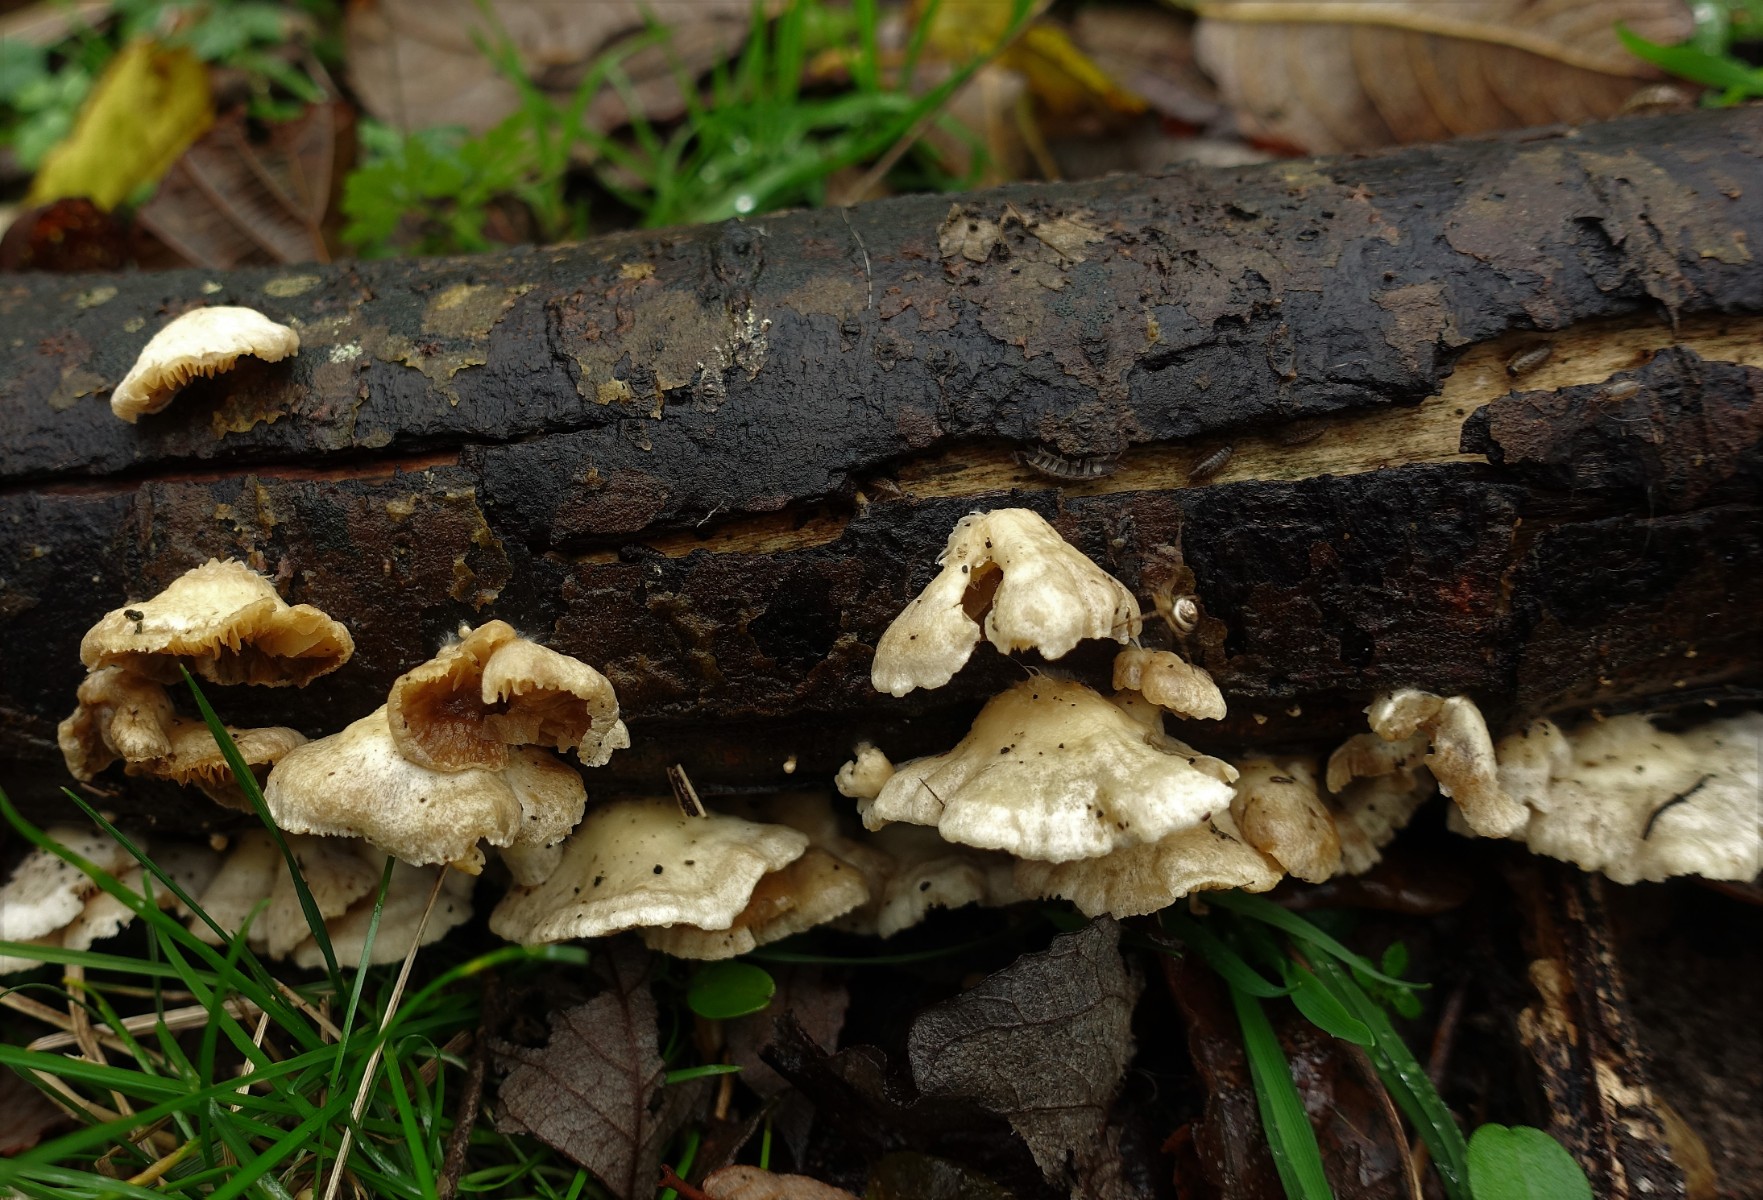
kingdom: Fungi
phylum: Basidiomycota
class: Agaricomycetes
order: Agaricales
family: Crepidotaceae
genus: Crepidotus
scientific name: Crepidotus caspari
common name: Lundells muslingesvamp
